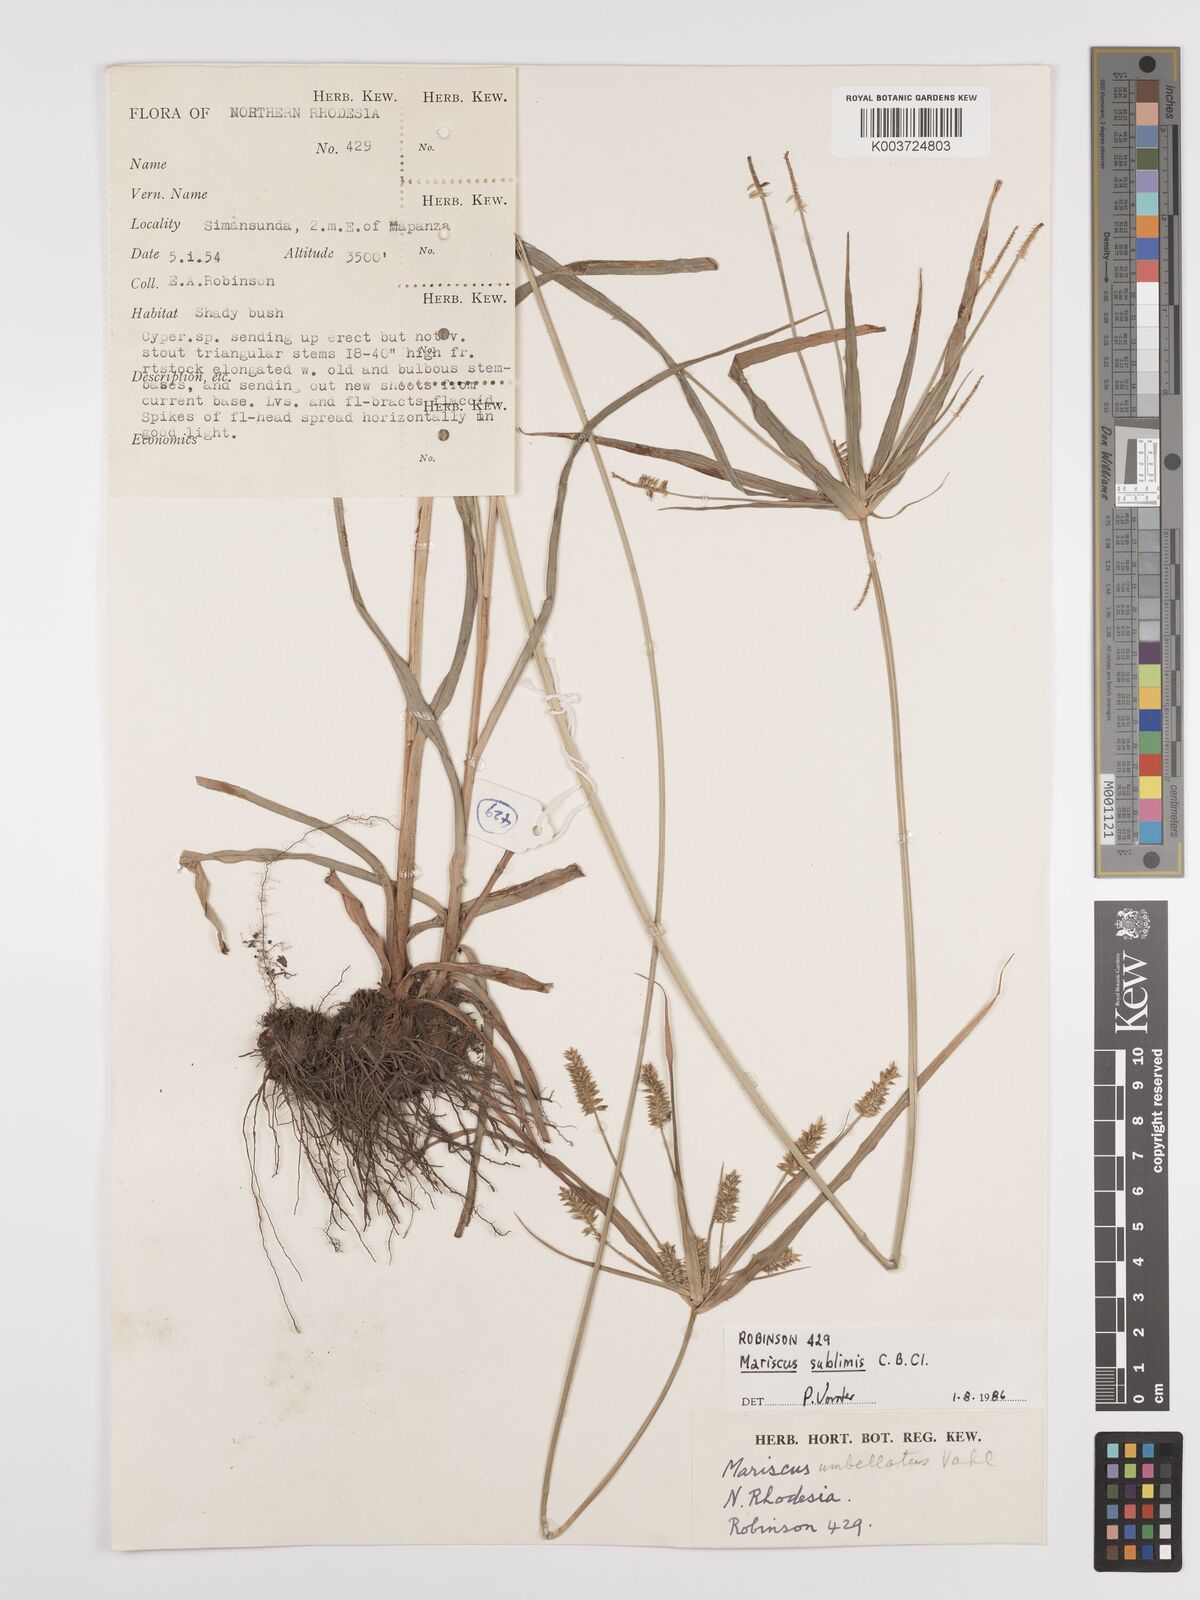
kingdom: Plantae
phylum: Tracheophyta
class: Liliopsida
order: Poales
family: Cyperaceae
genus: Cyperus
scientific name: Cyperus cyperoides
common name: Pacific island flat sedge
